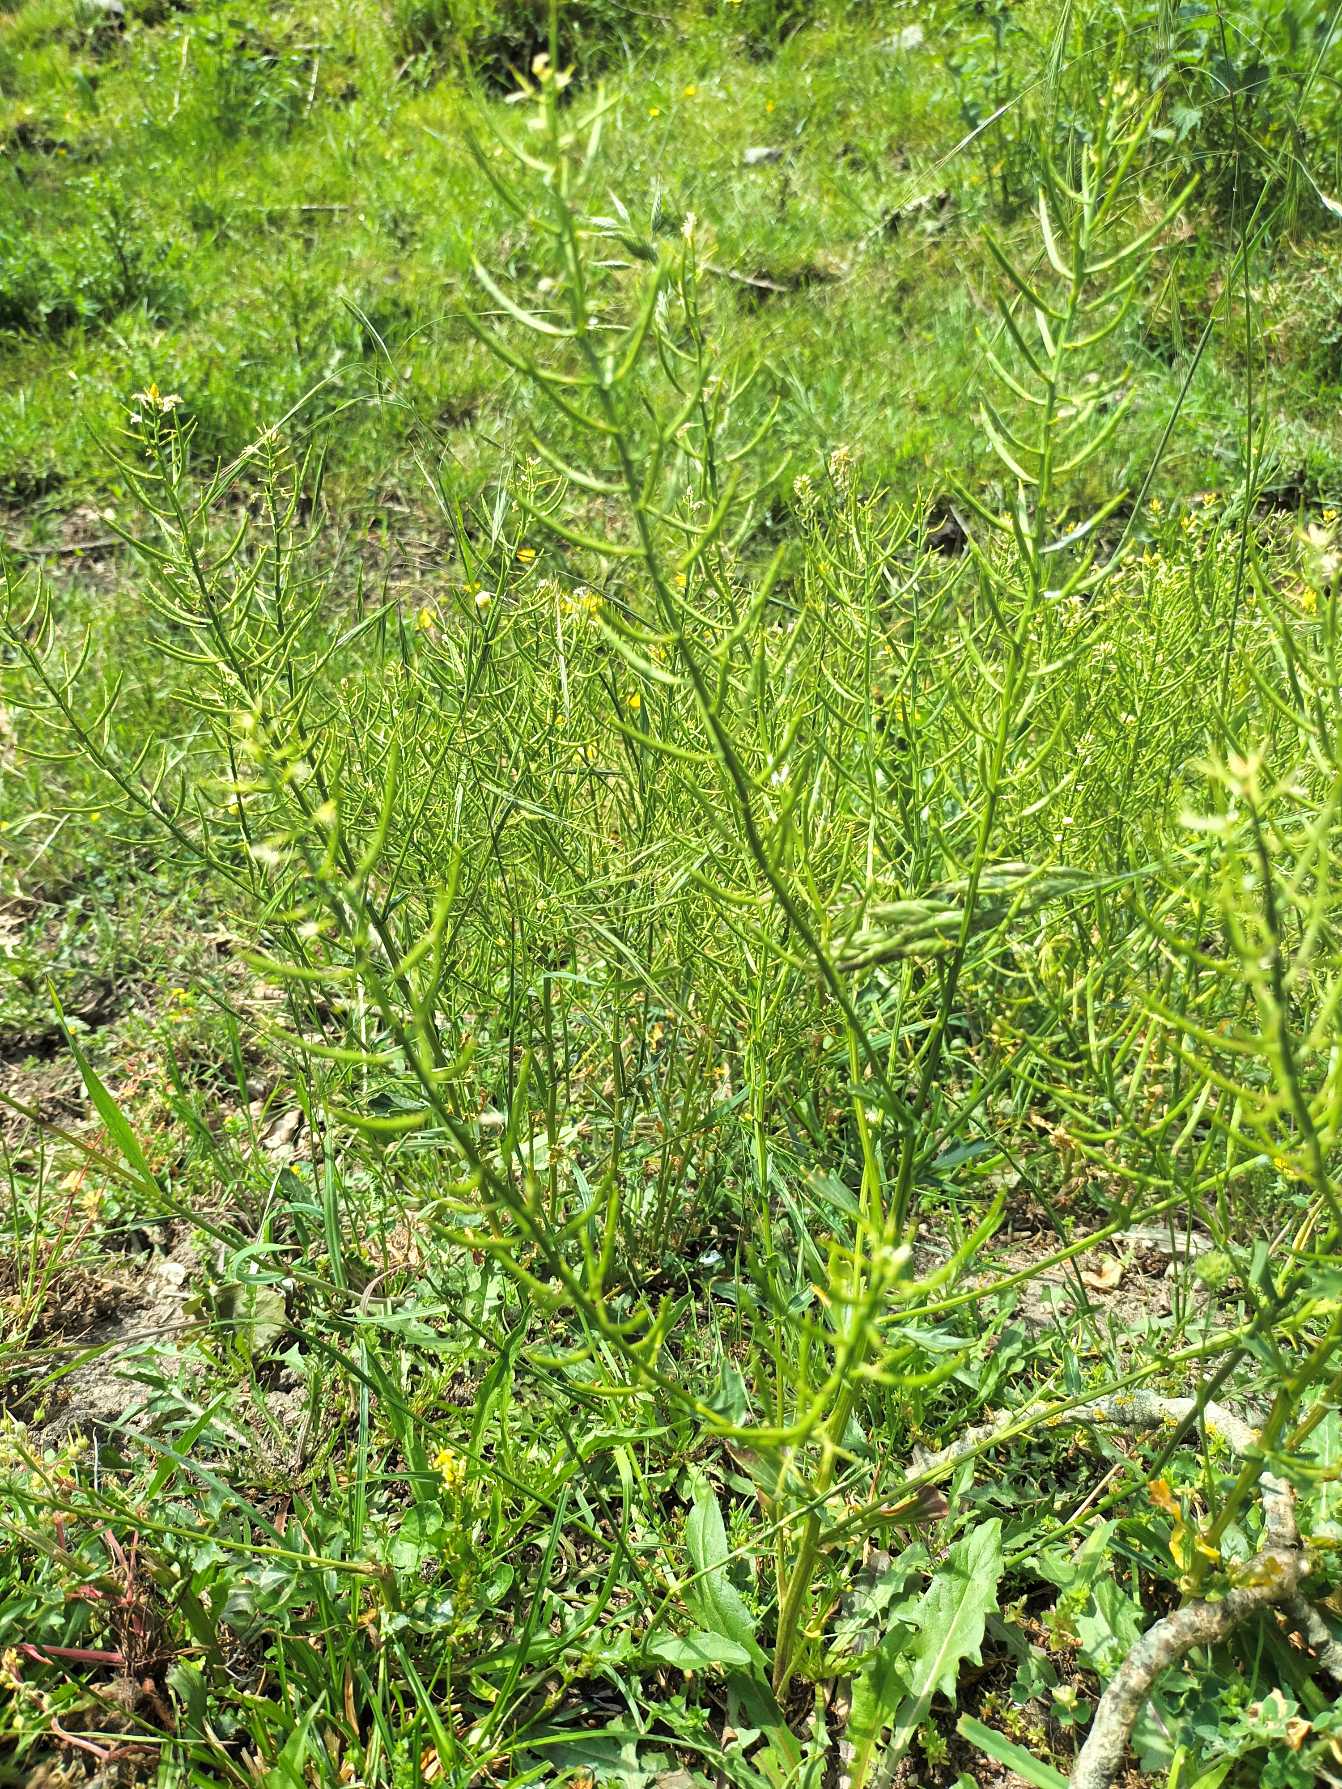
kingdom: Plantae
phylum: Tracheophyta
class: Magnoliopsida
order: Brassicales
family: Brassicaceae
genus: Barbarea
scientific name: Barbarea vulgaris
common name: Udspærret vinterkarse
